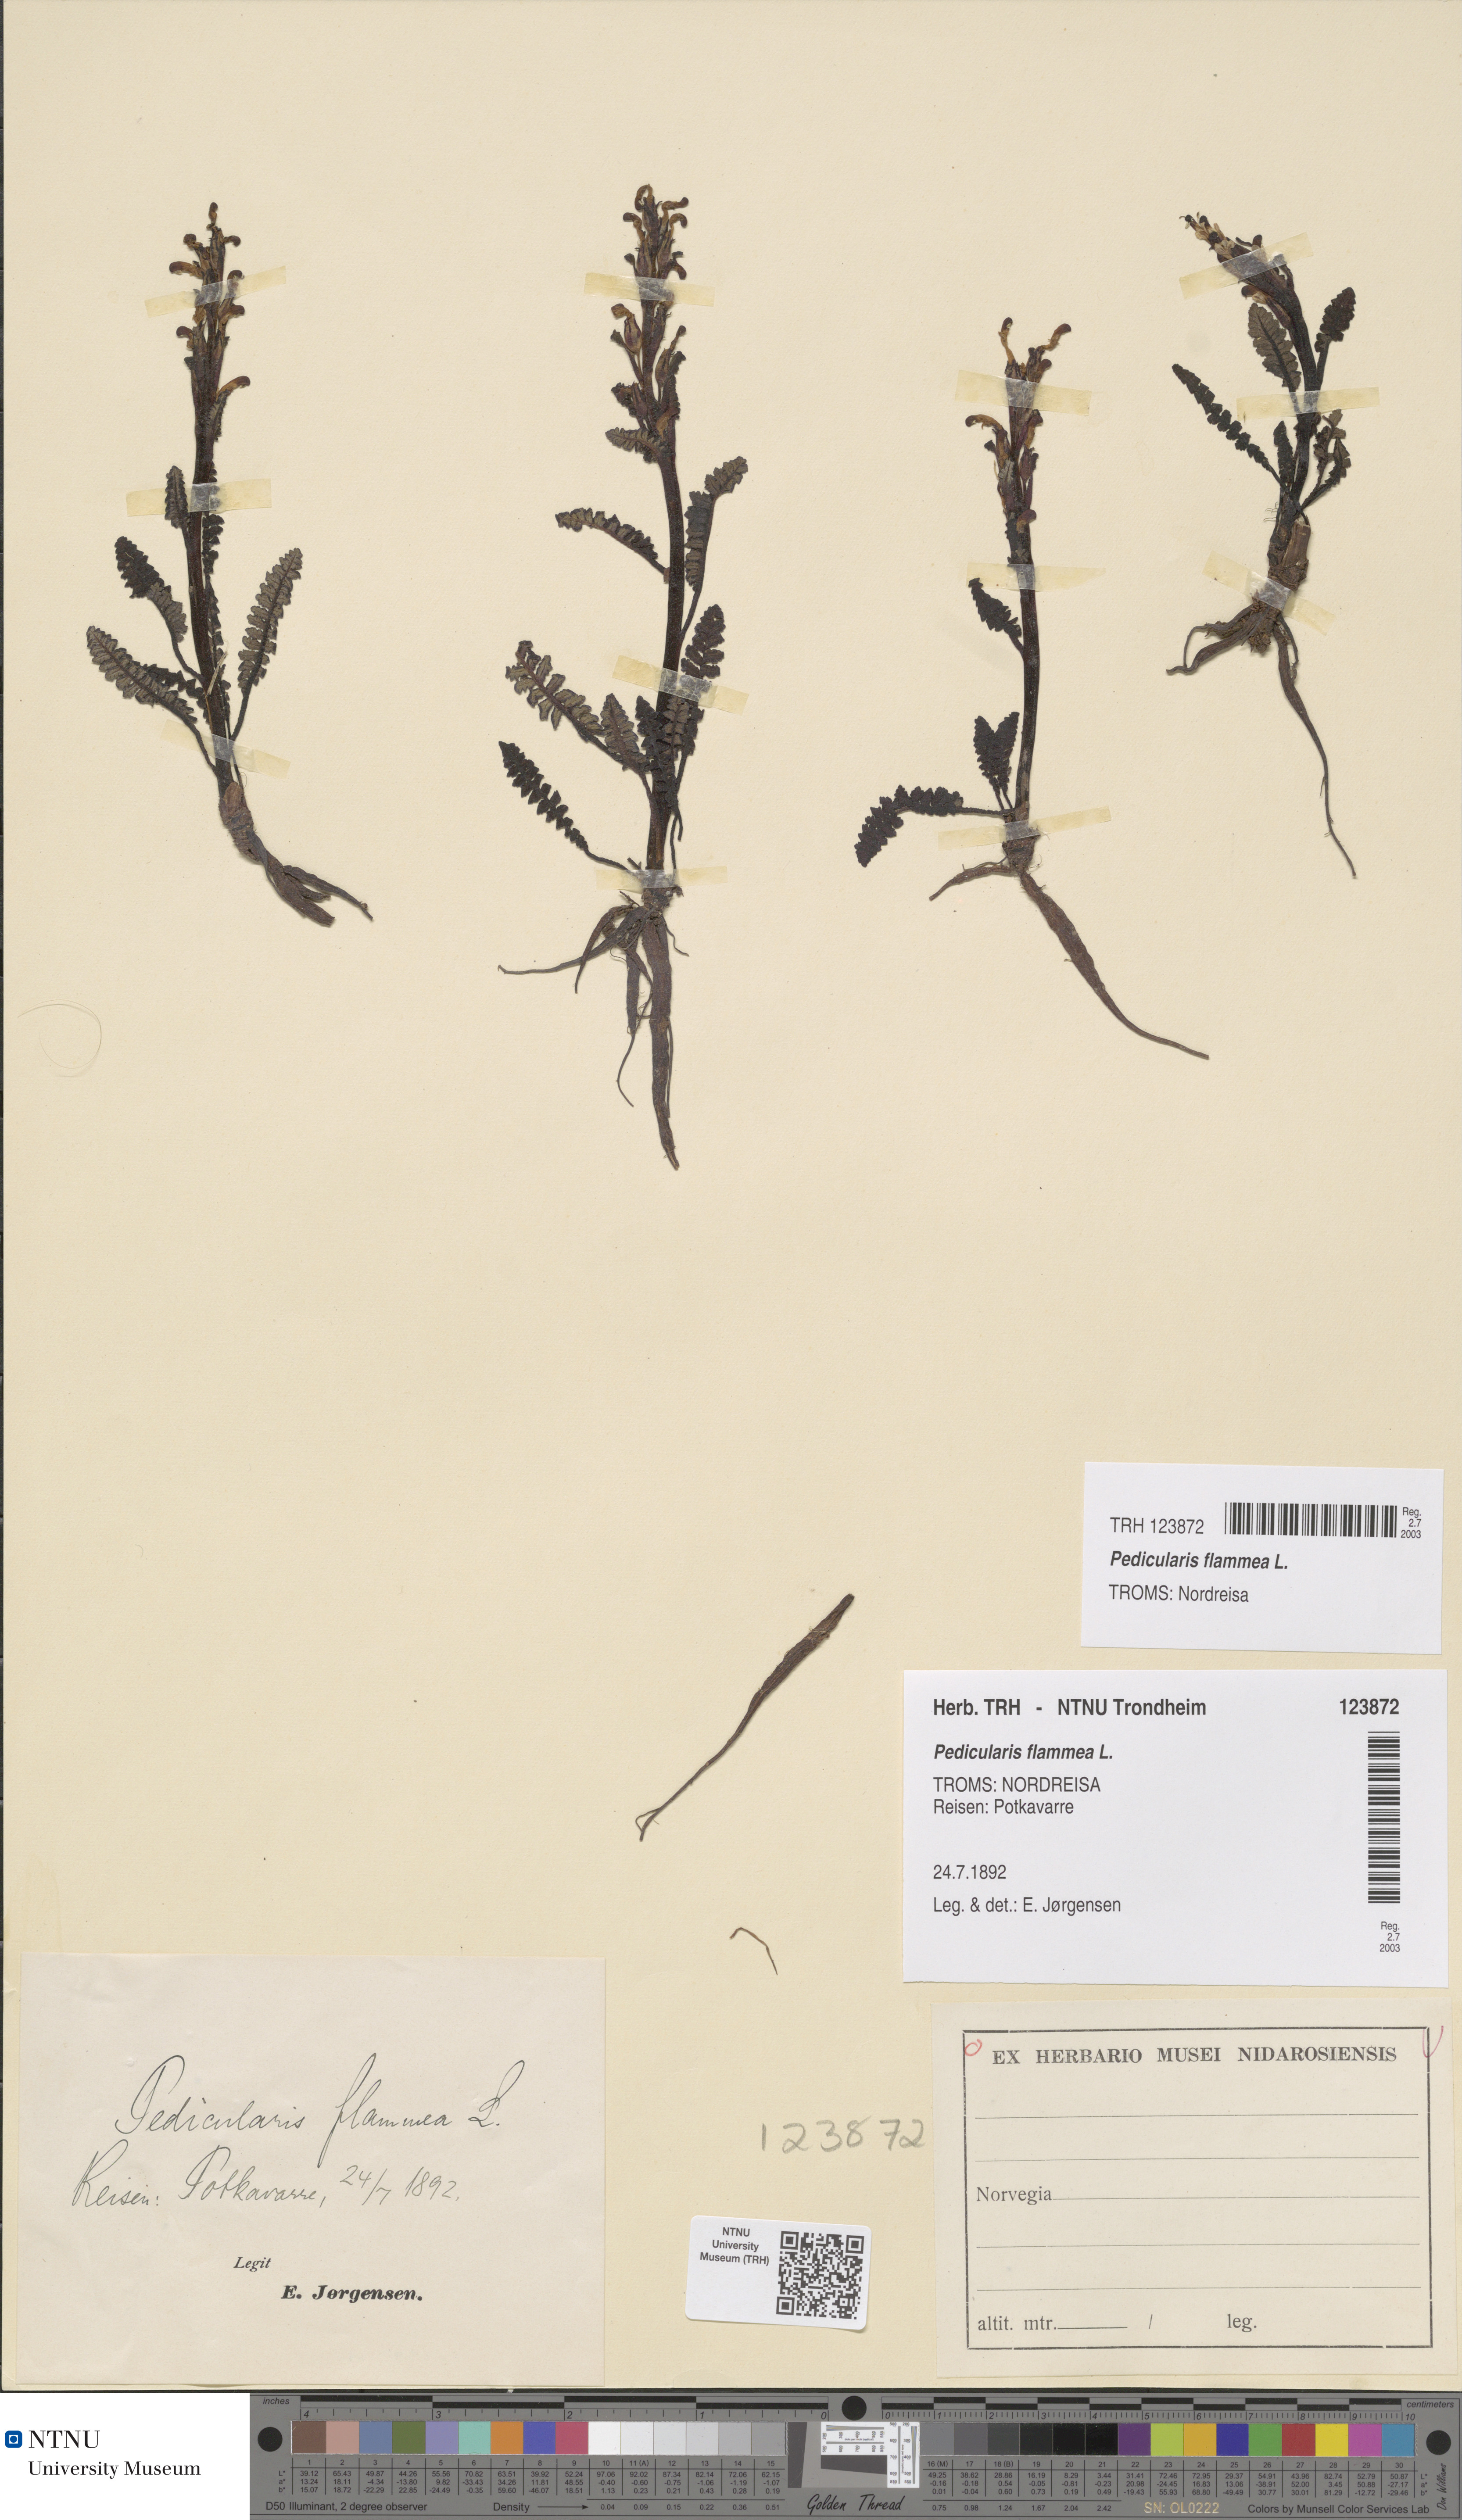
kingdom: Plantae
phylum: Tracheophyta
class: Magnoliopsida
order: Lamiales
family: Orobanchaceae
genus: Pedicularis
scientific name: Pedicularis flammea
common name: Flame-coloured lousewort
